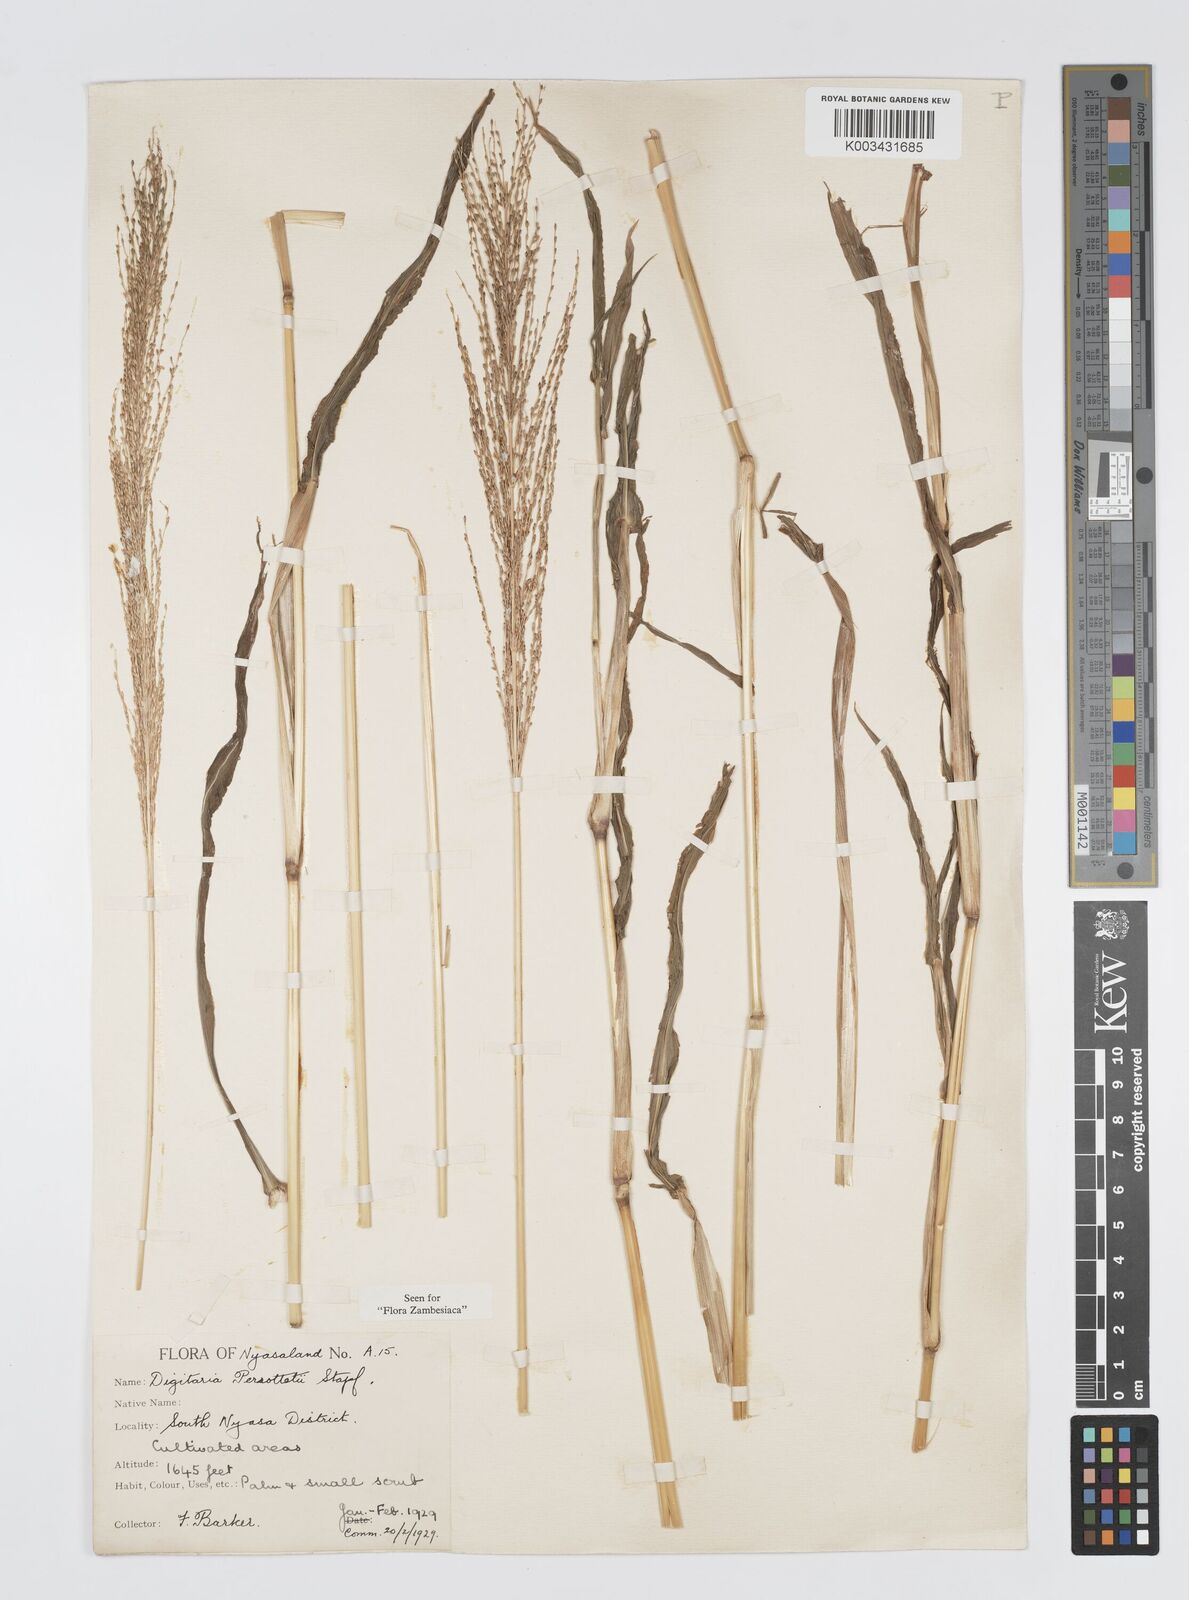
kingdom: Plantae
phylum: Tracheophyta
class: Liliopsida
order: Poales
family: Poaceae
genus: Digitaria
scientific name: Digitaria perrottetii
